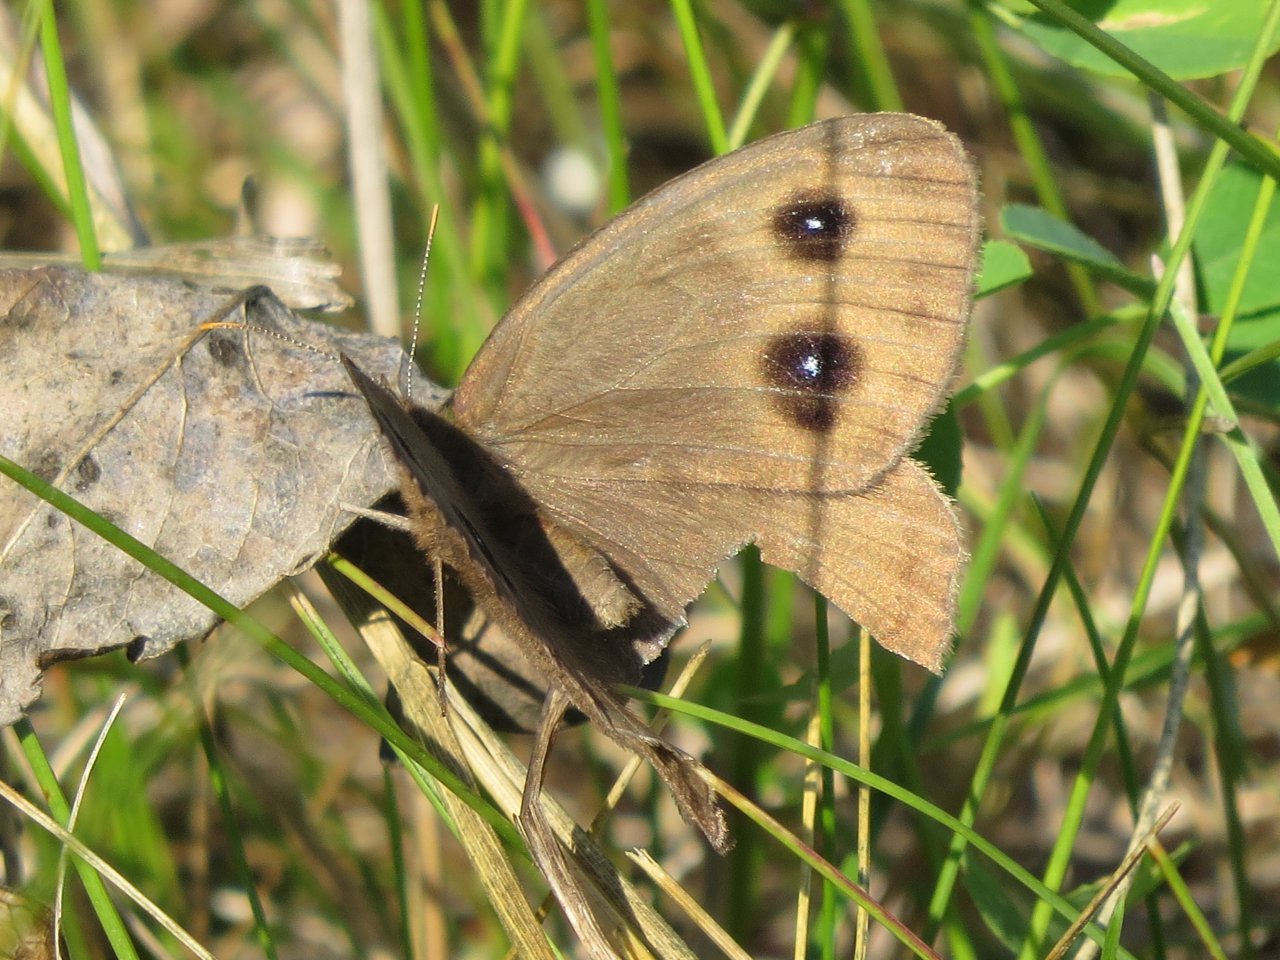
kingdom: Animalia
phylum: Arthropoda
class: Insecta
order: Lepidoptera
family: Nymphalidae
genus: Cercyonis
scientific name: Cercyonis pegala
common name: Common Wood-Nymph
